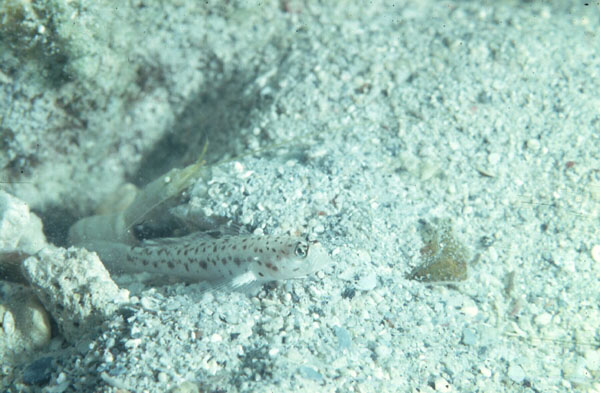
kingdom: Animalia
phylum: Chordata
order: Perciformes
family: Gobiidae
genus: Ctenogobiops
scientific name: Ctenogobiops
